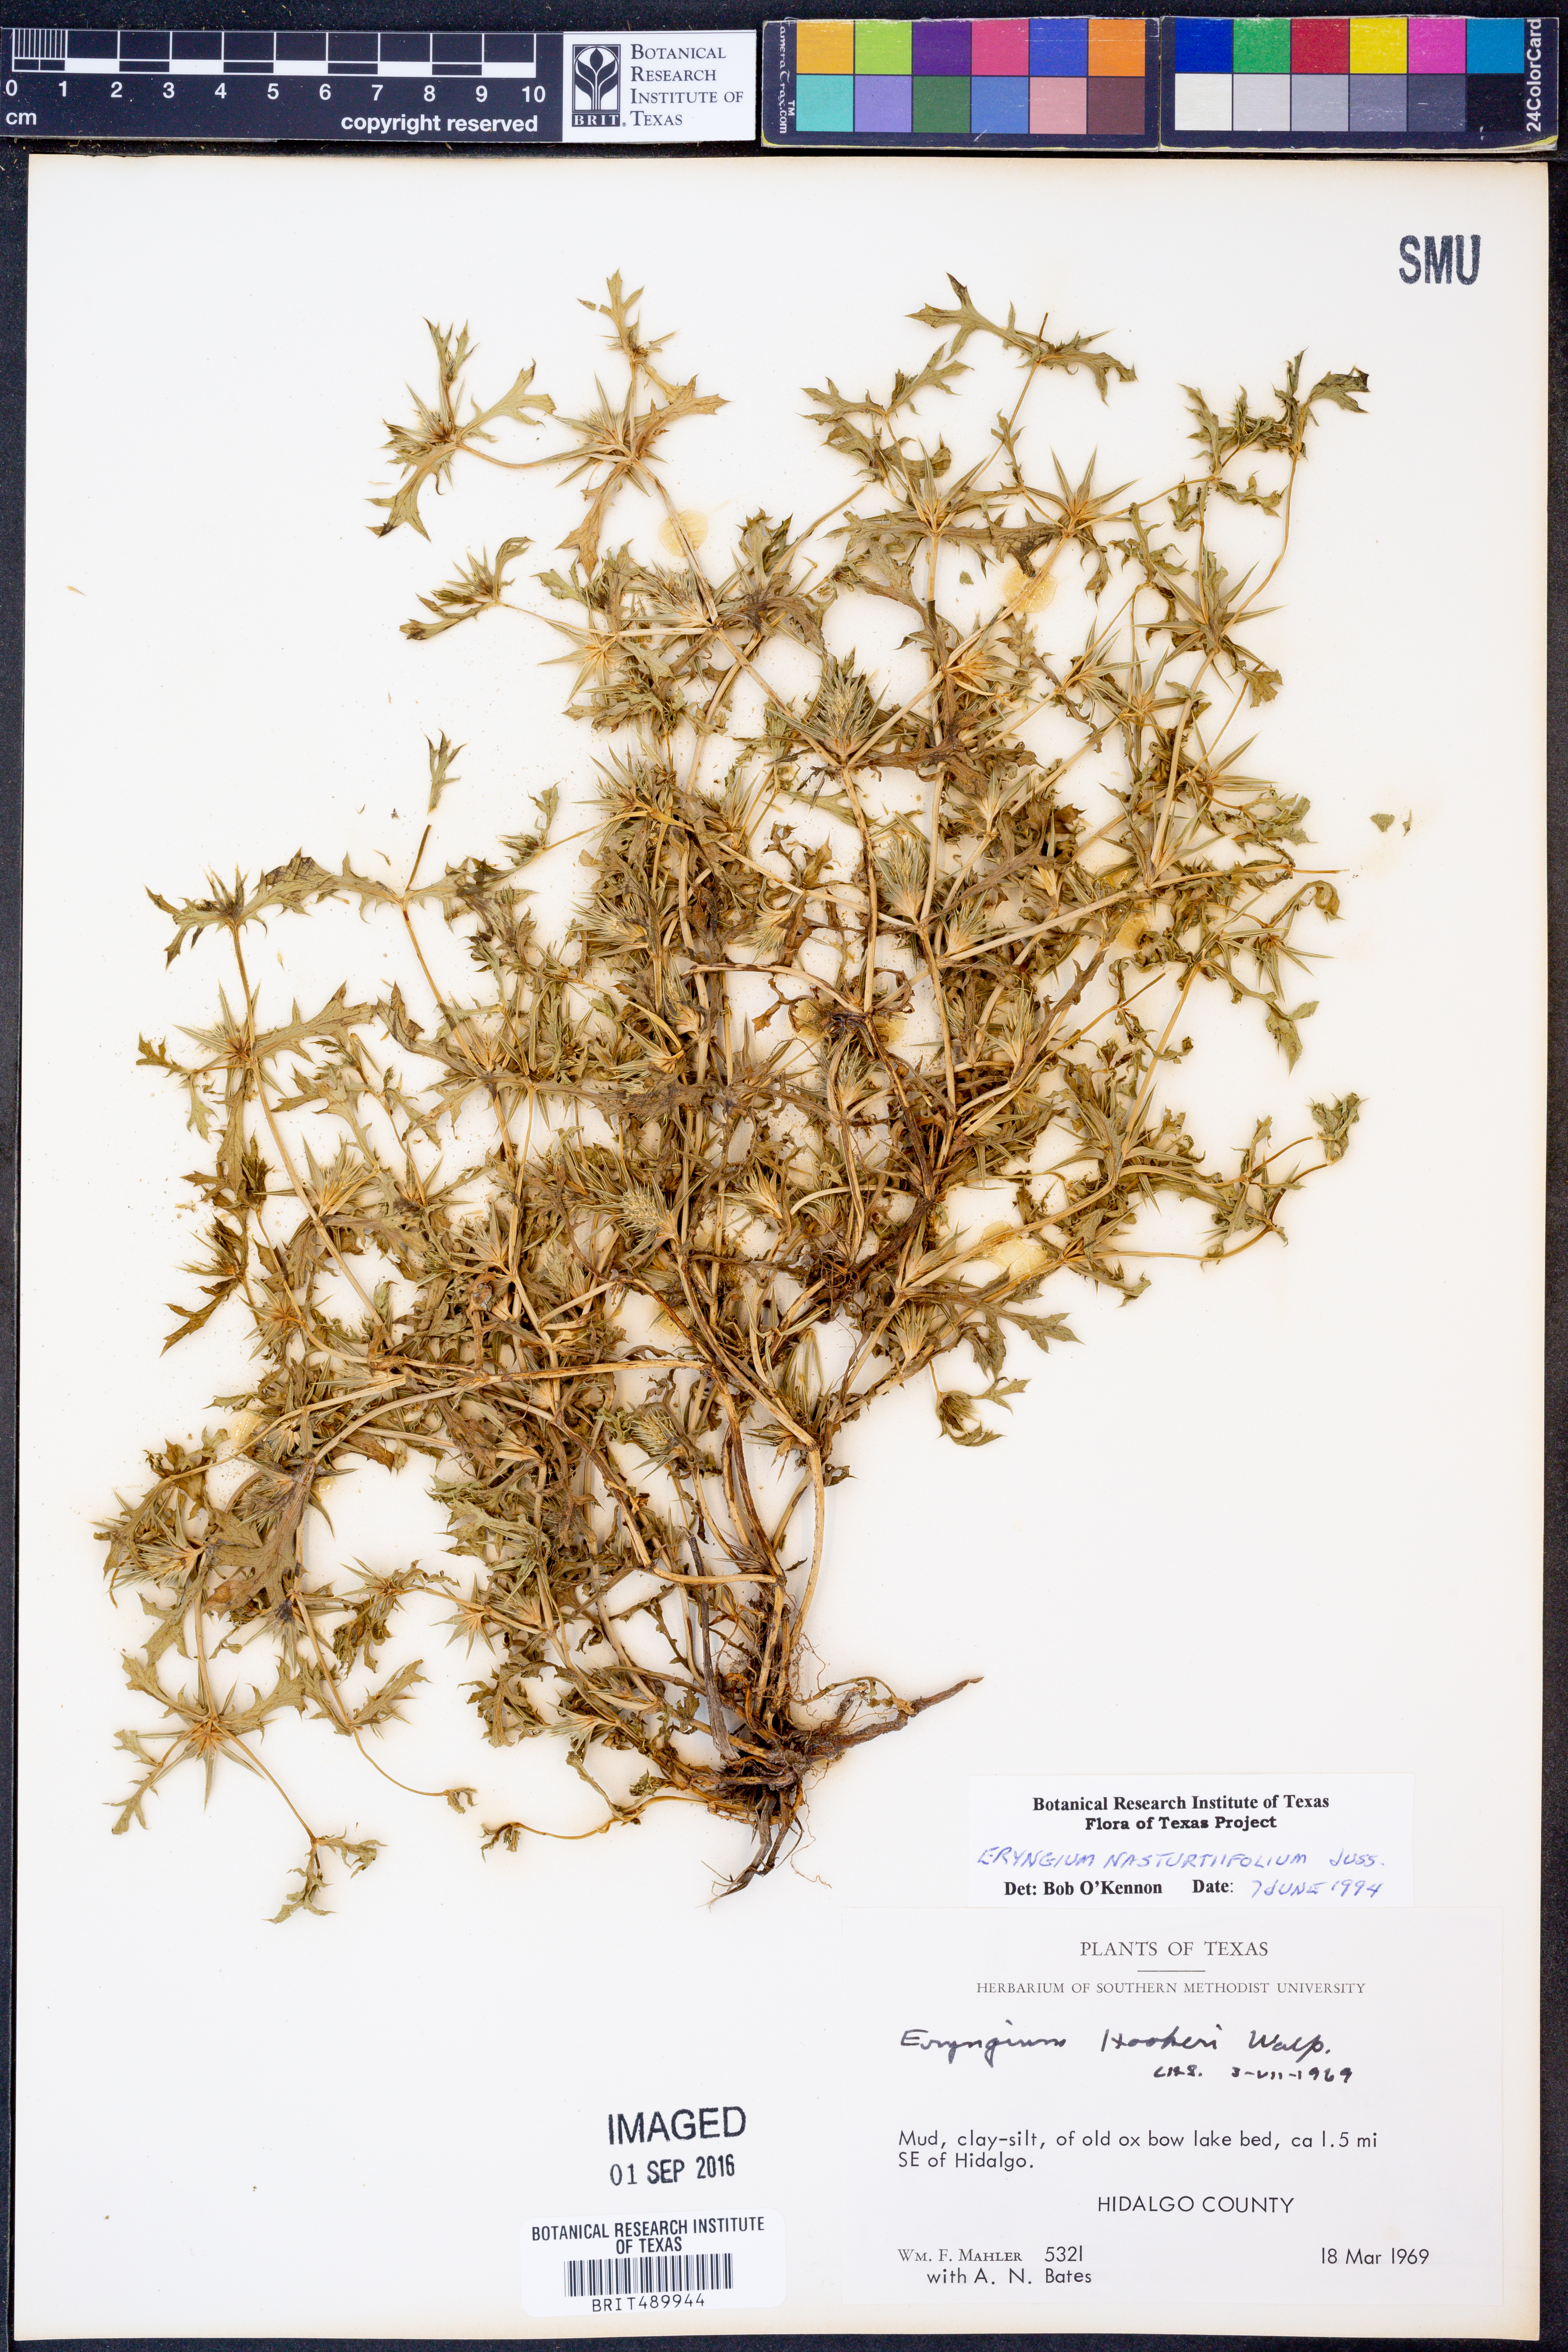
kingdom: Plantae
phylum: Tracheophyta
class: Magnoliopsida
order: Apiales
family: Apiaceae
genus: Eryngium
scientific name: Eryngium nasturtiifolium
